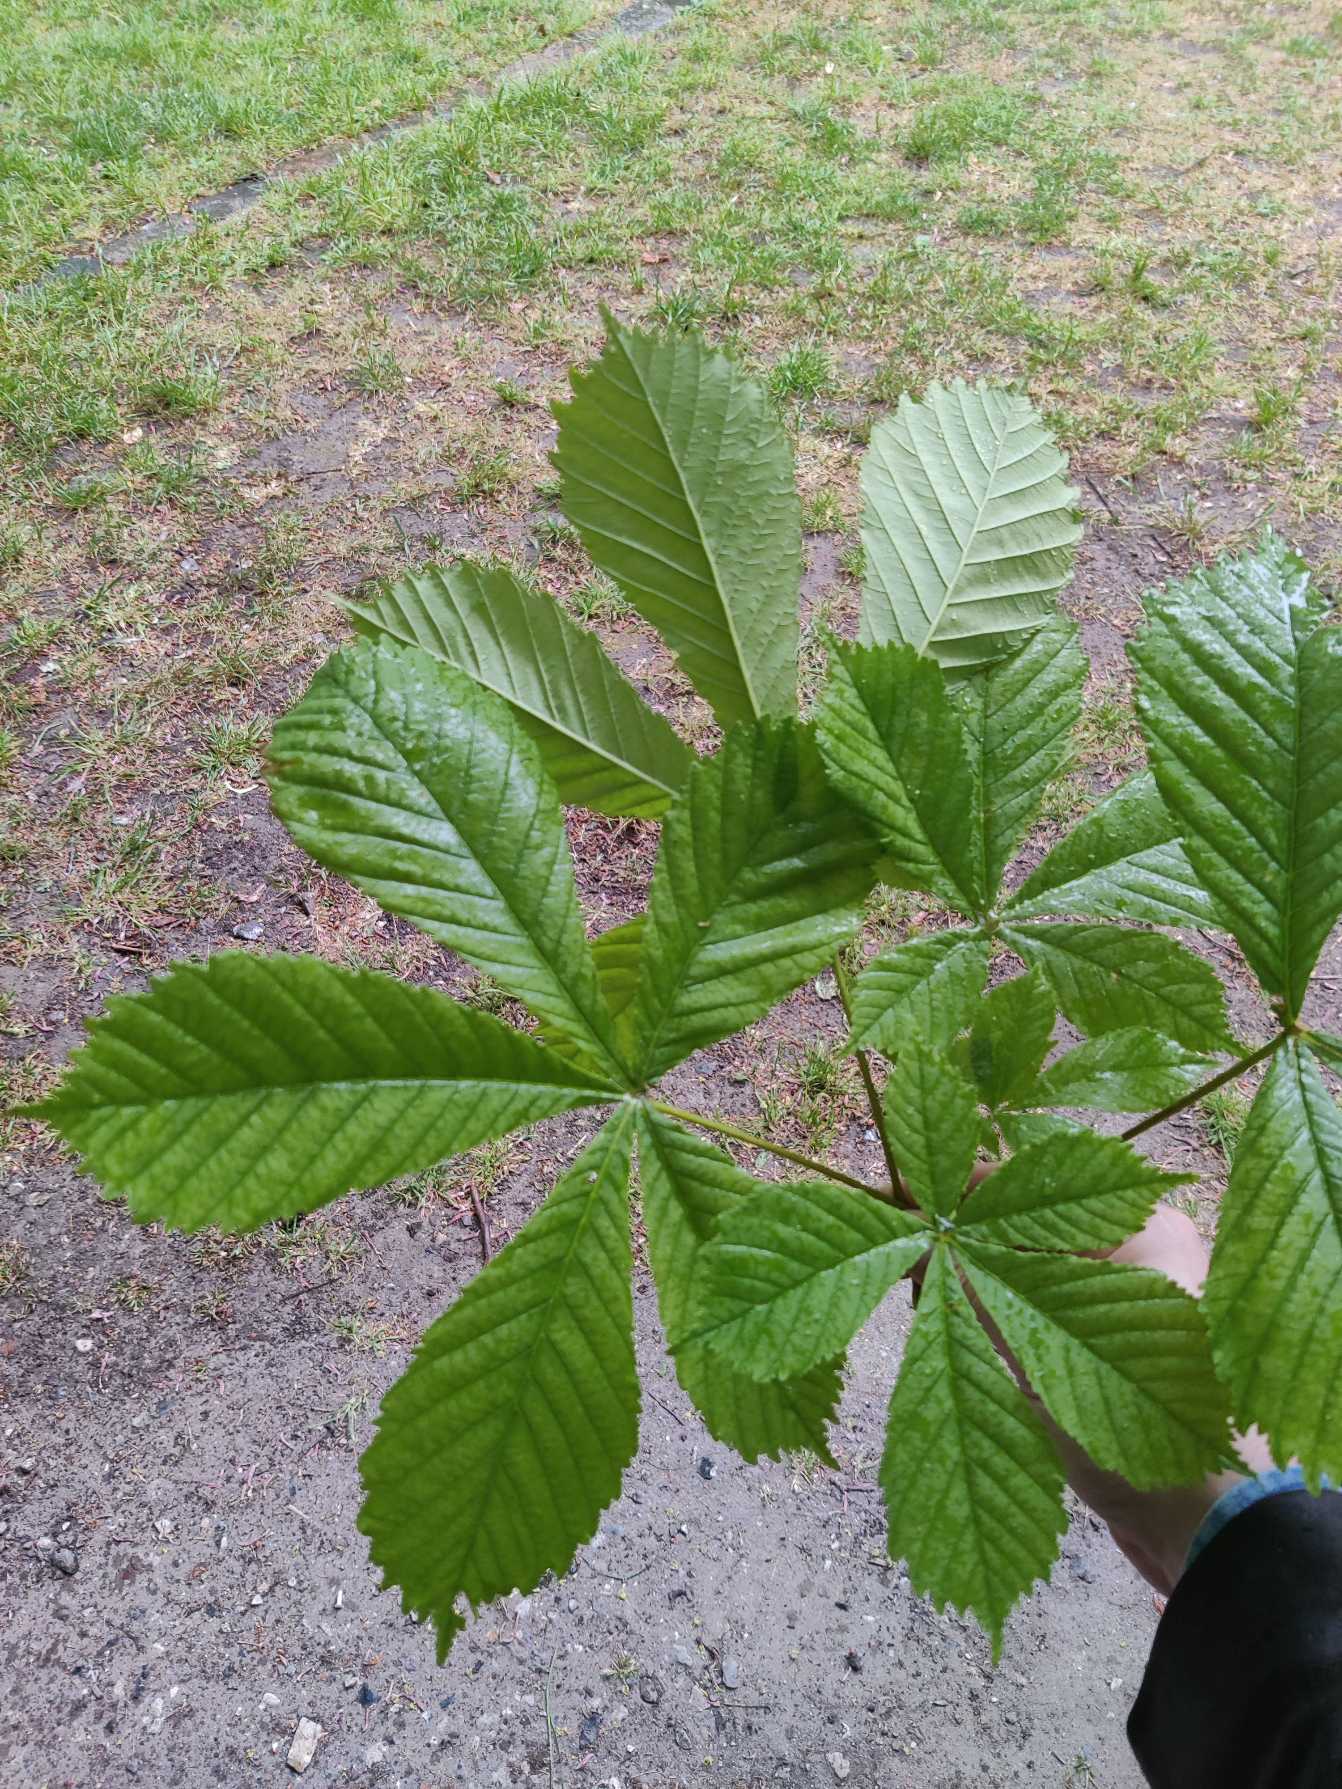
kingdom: Plantae
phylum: Tracheophyta
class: Magnoliopsida
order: Sapindales
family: Sapindaceae
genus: Aesculus
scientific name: Aesculus hippocastanum
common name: Hestekastanie
